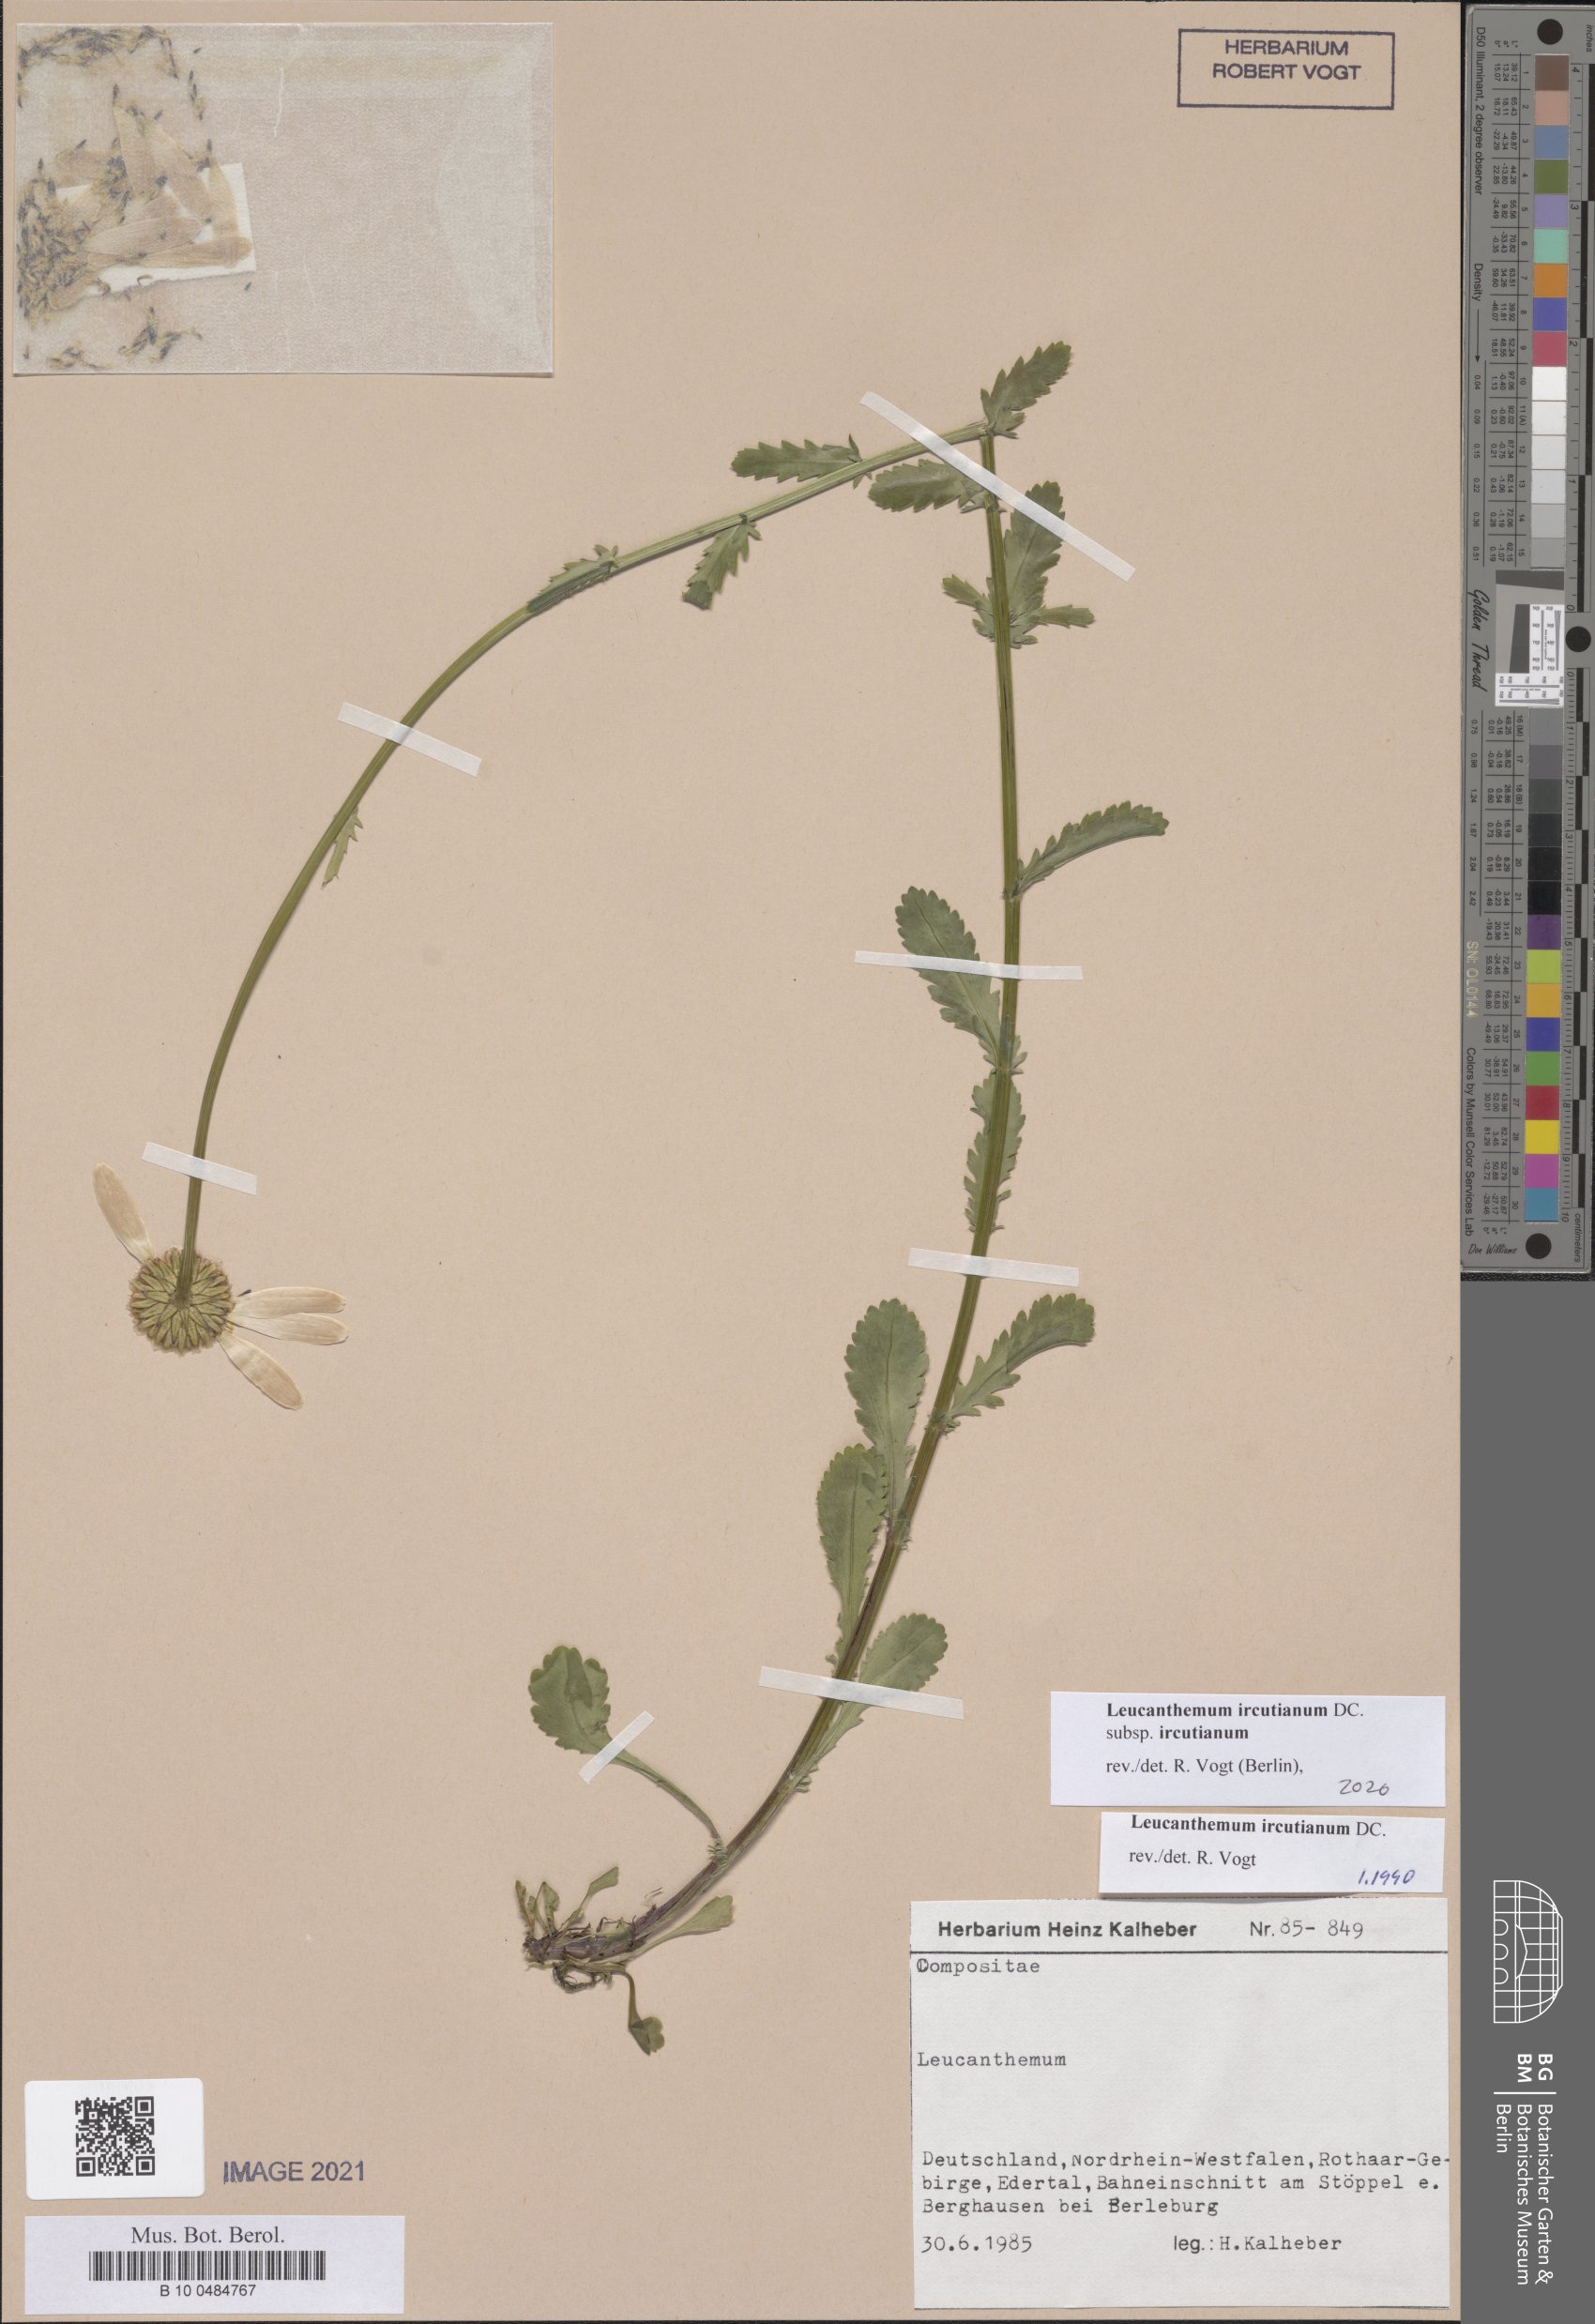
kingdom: Plantae
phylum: Tracheophyta
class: Magnoliopsida
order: Asterales
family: Asteraceae
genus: Leucanthemum
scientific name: Leucanthemum ircutianum
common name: Daisy
